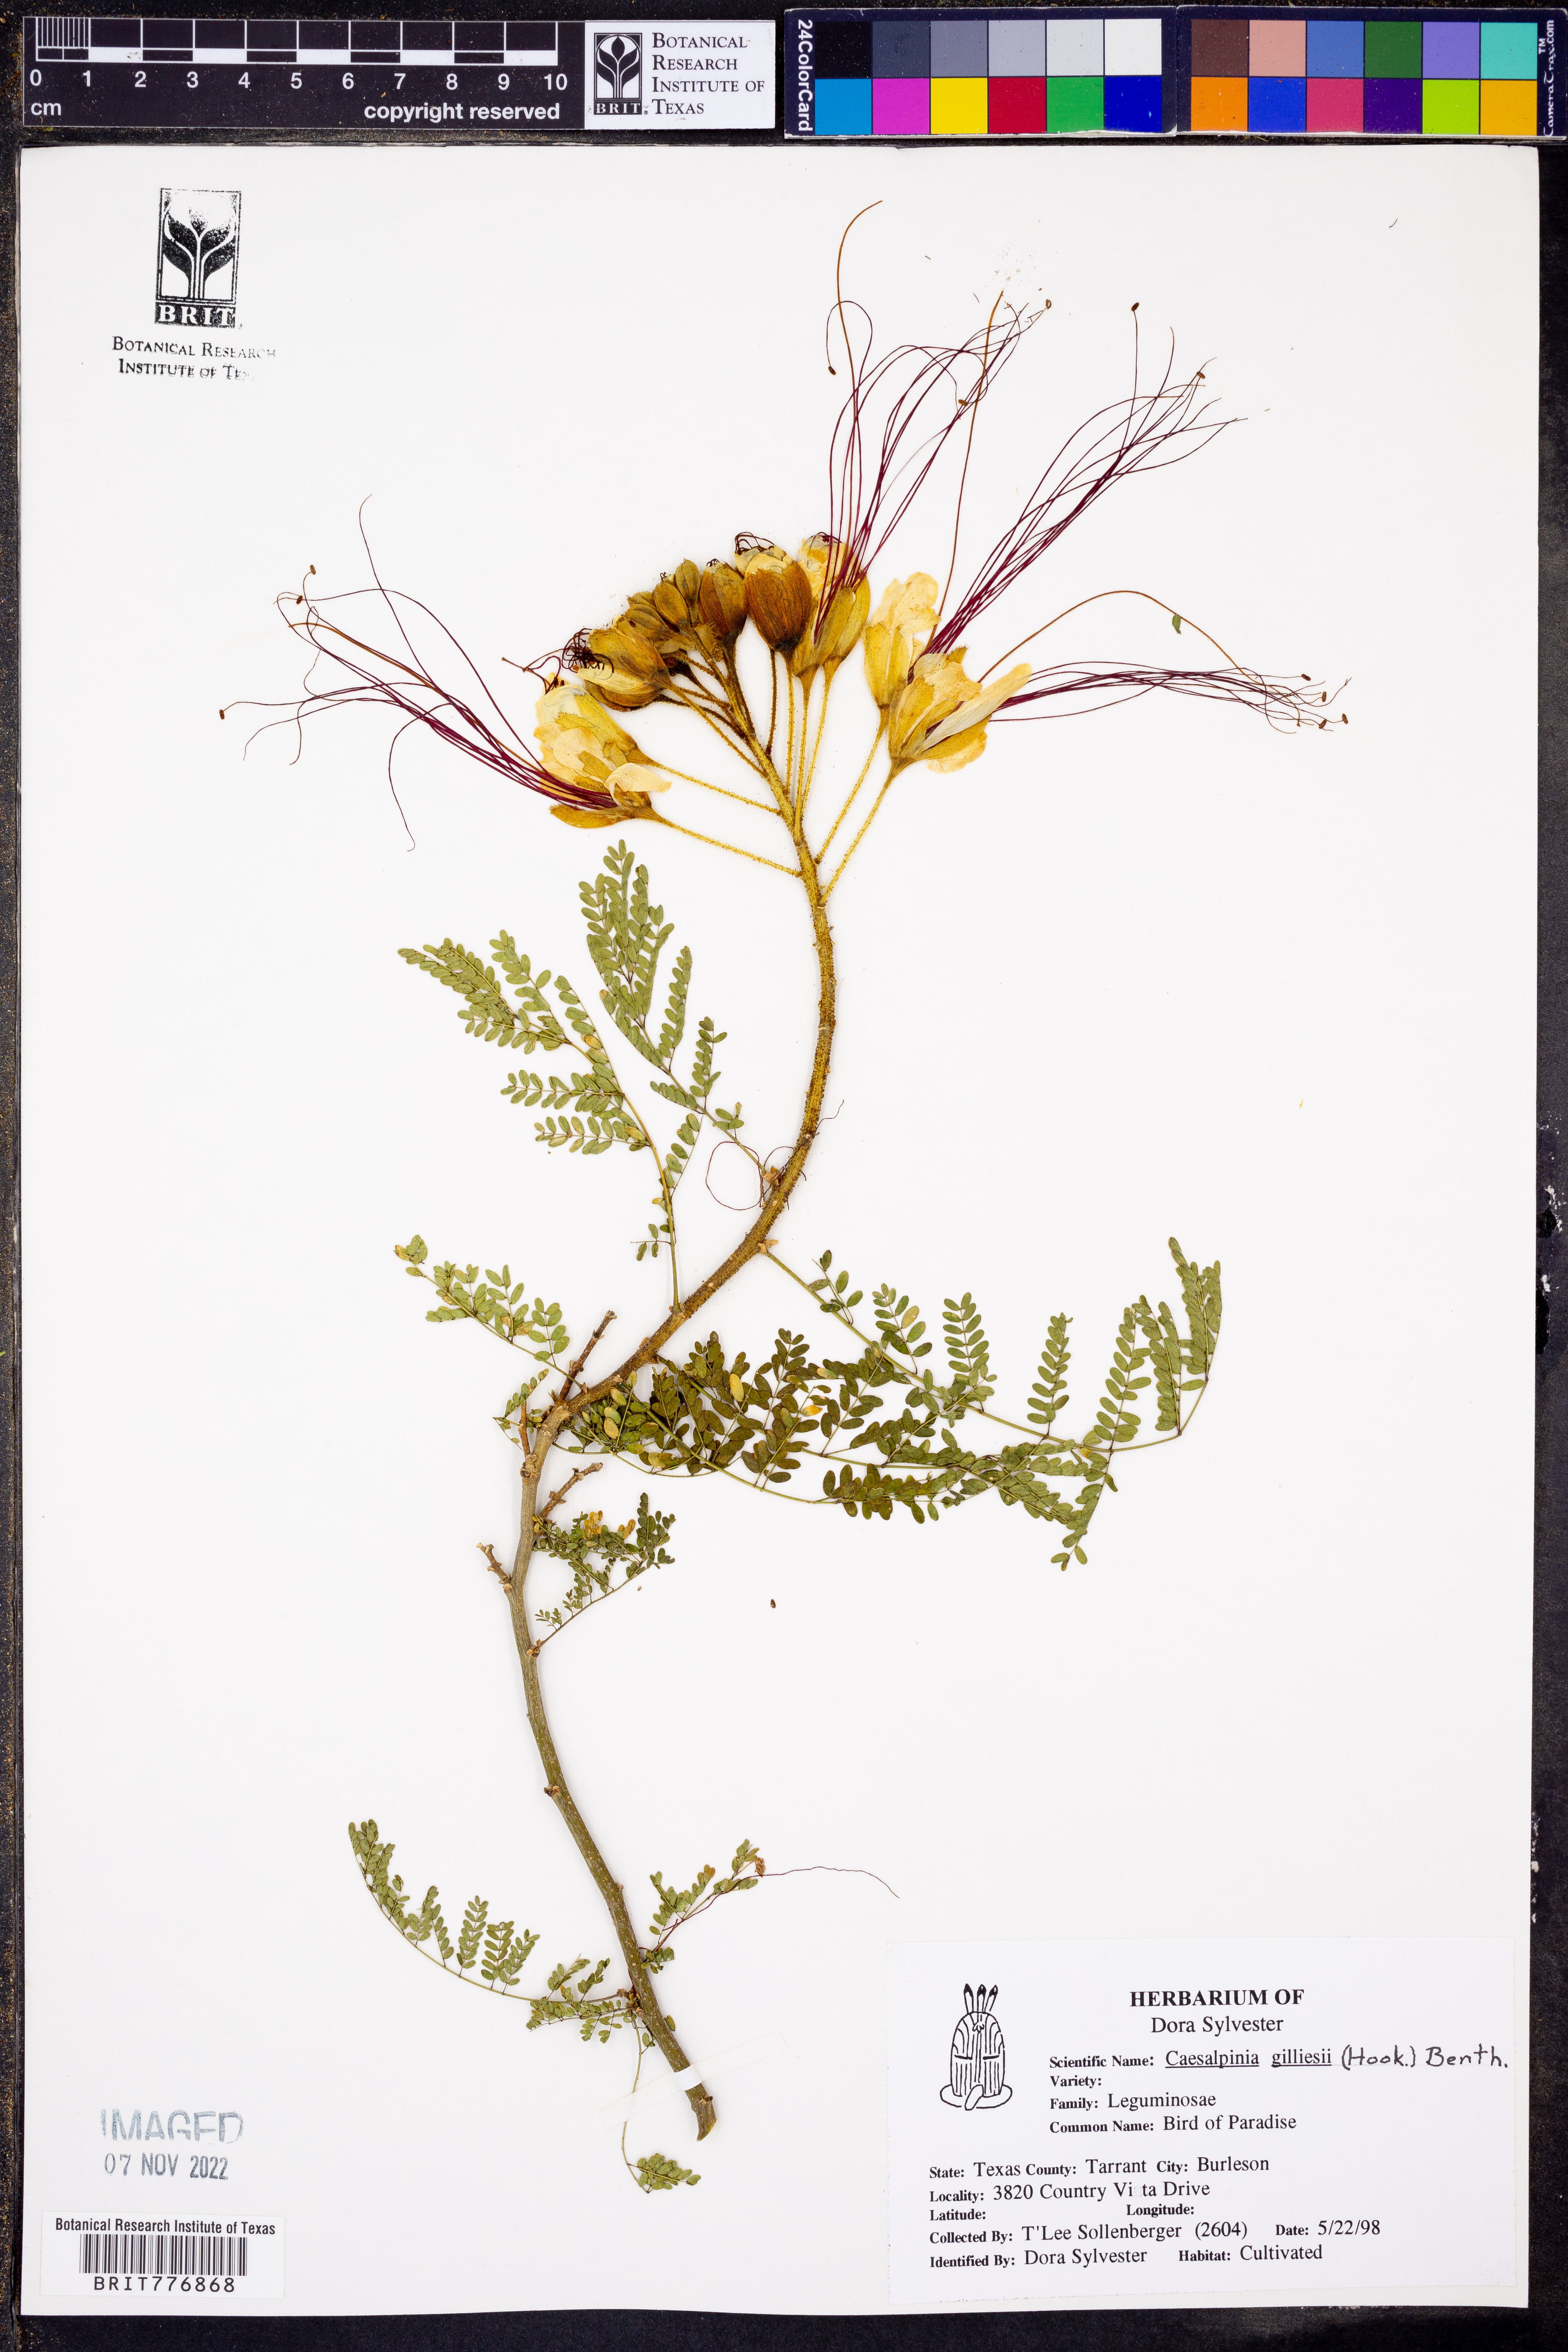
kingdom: Plantae
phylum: Tracheophyta
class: Magnoliopsida
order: Fabales
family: Fabaceae
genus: Erythrostemon
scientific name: Erythrostemon gilliesii
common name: Bird-of-paradise shrub
